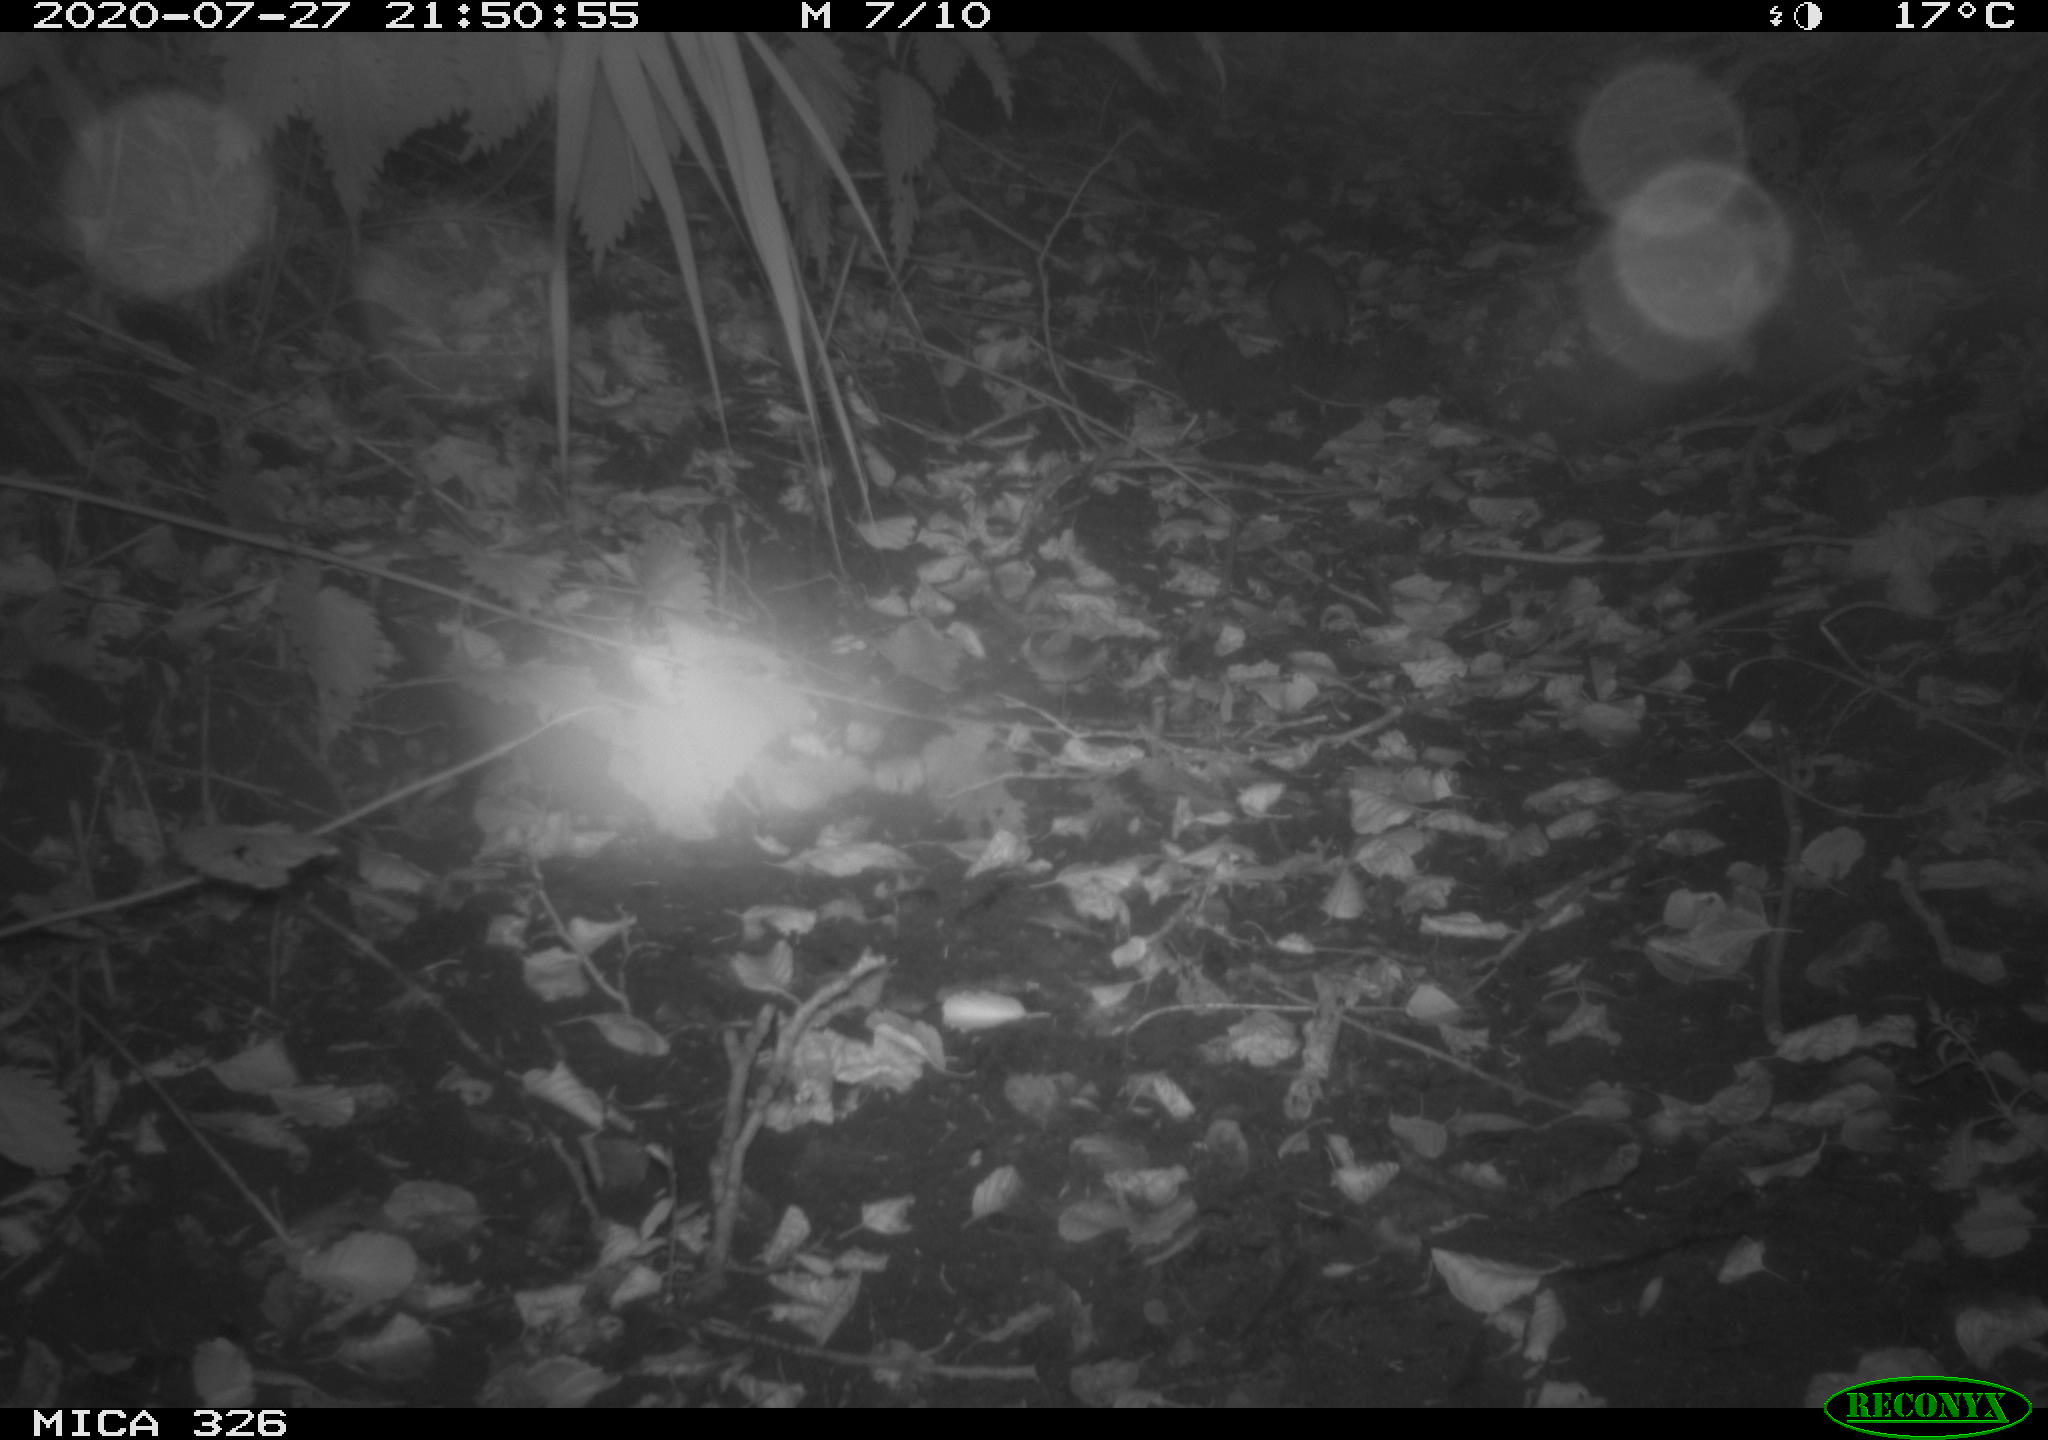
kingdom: Animalia
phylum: Chordata
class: Mammalia
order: Rodentia
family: Muridae
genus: Rattus
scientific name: Rattus norvegicus
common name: Brown rat
